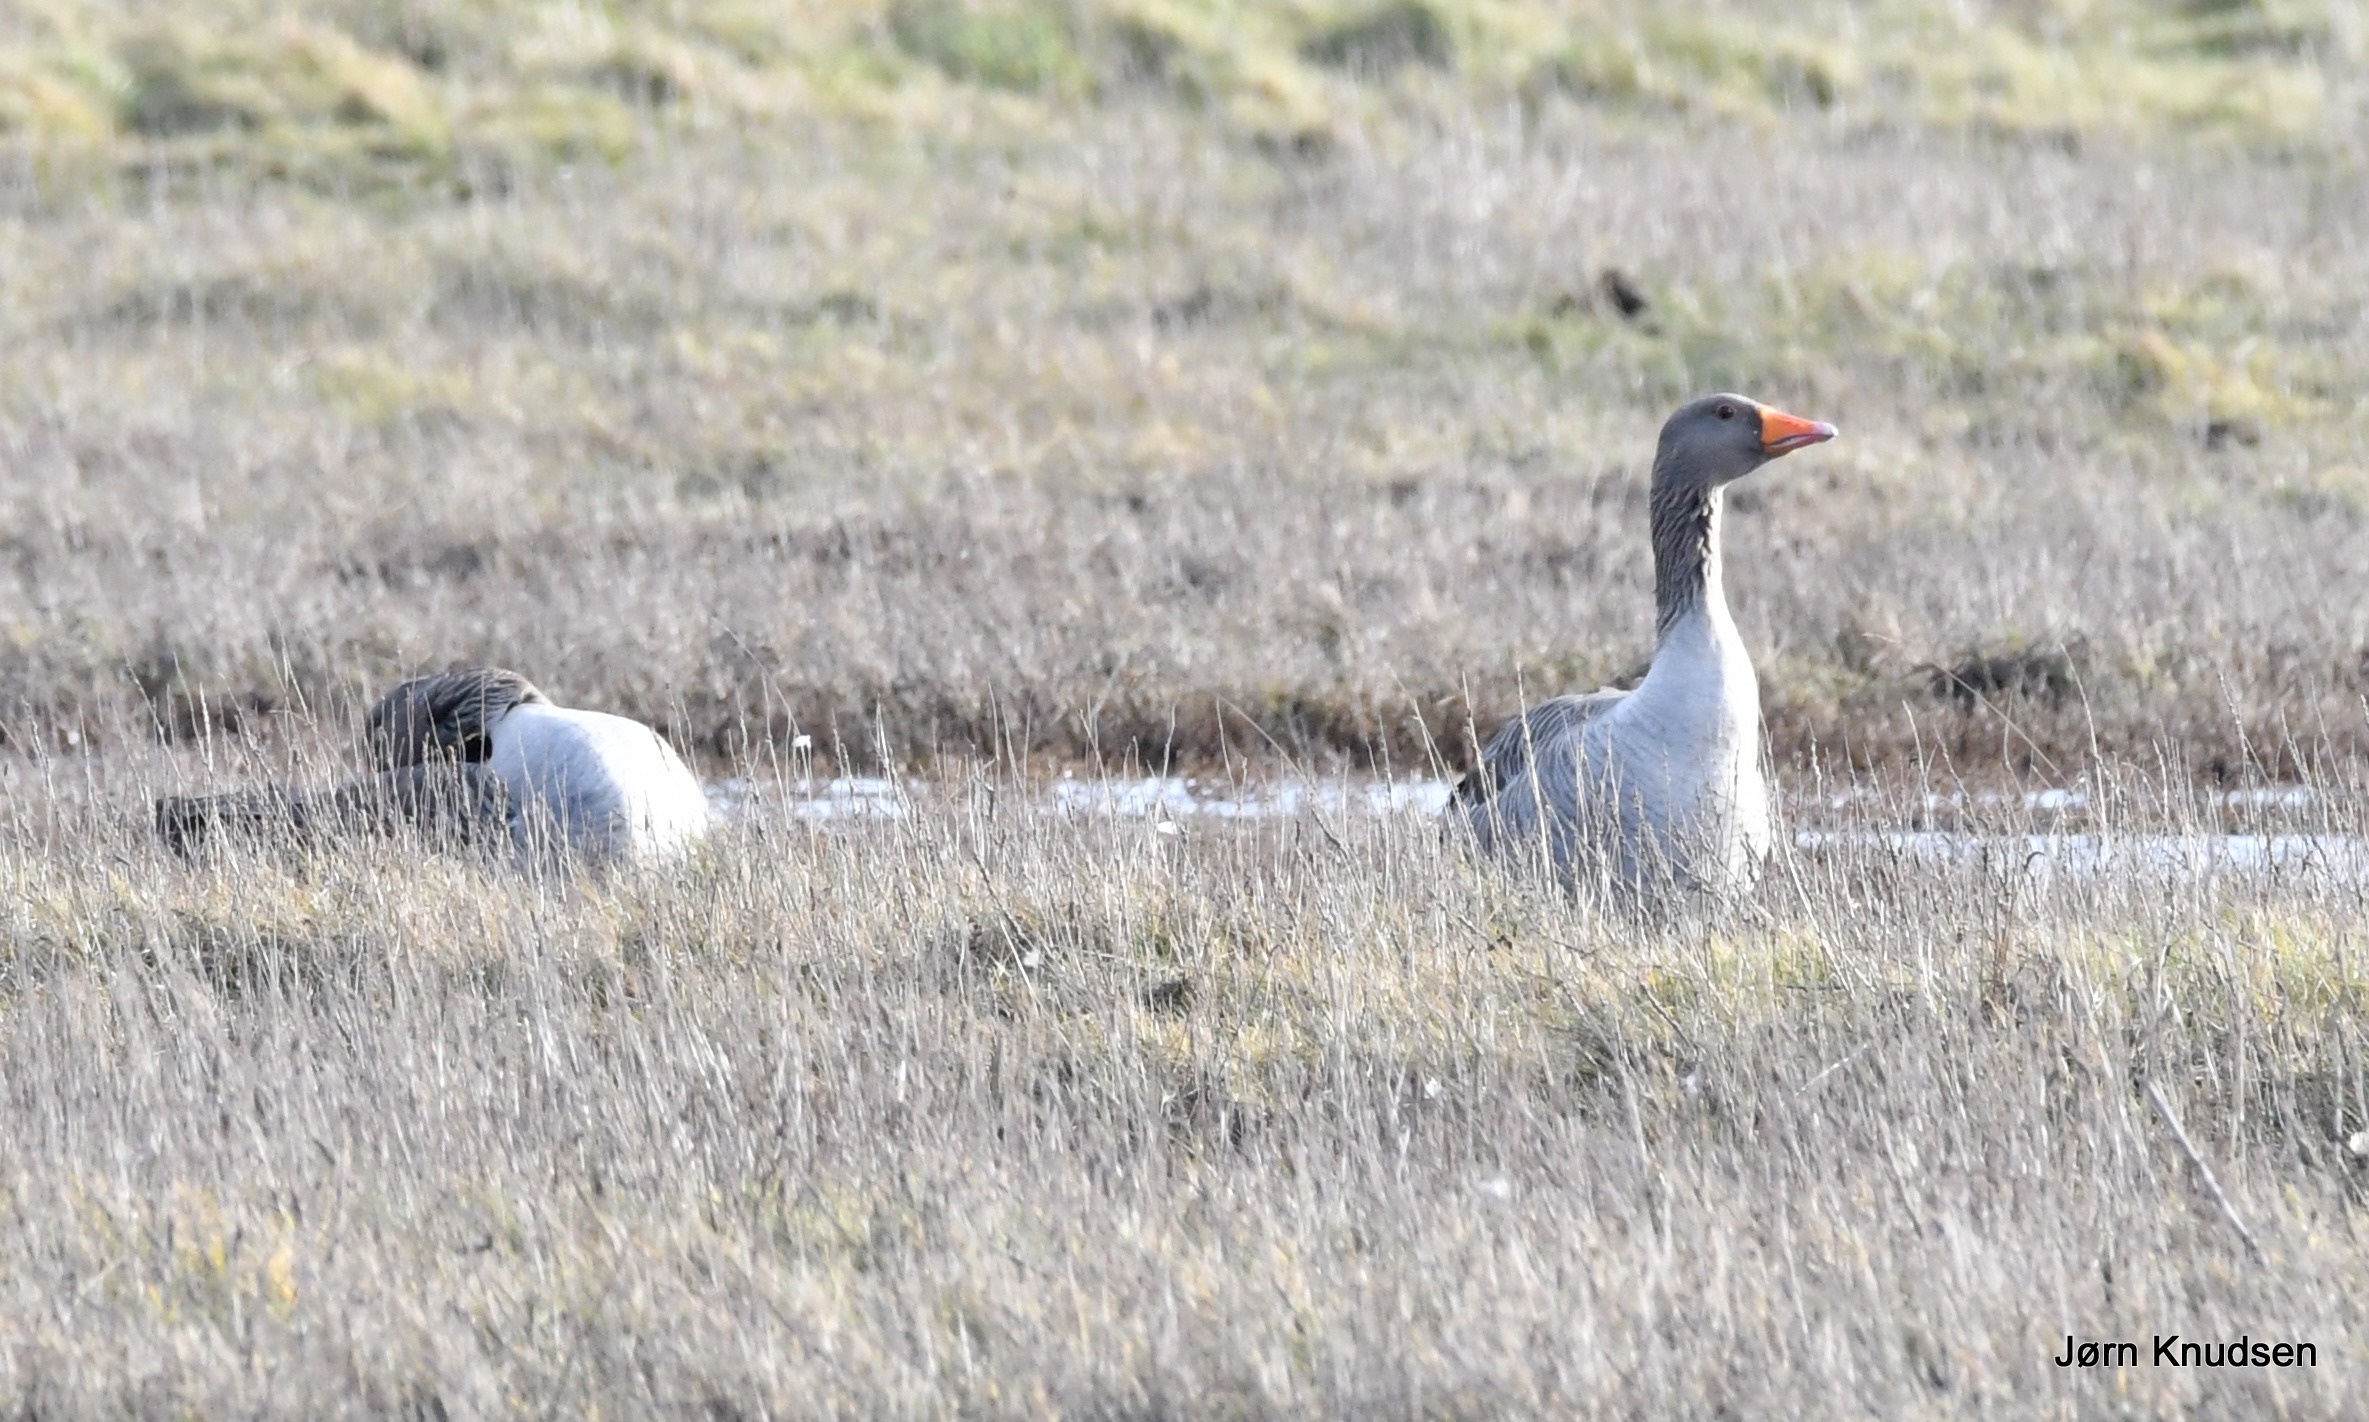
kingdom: Animalia
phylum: Chordata
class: Aves
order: Anseriformes
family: Anatidae
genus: Anser
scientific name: Anser anser
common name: Grågås
